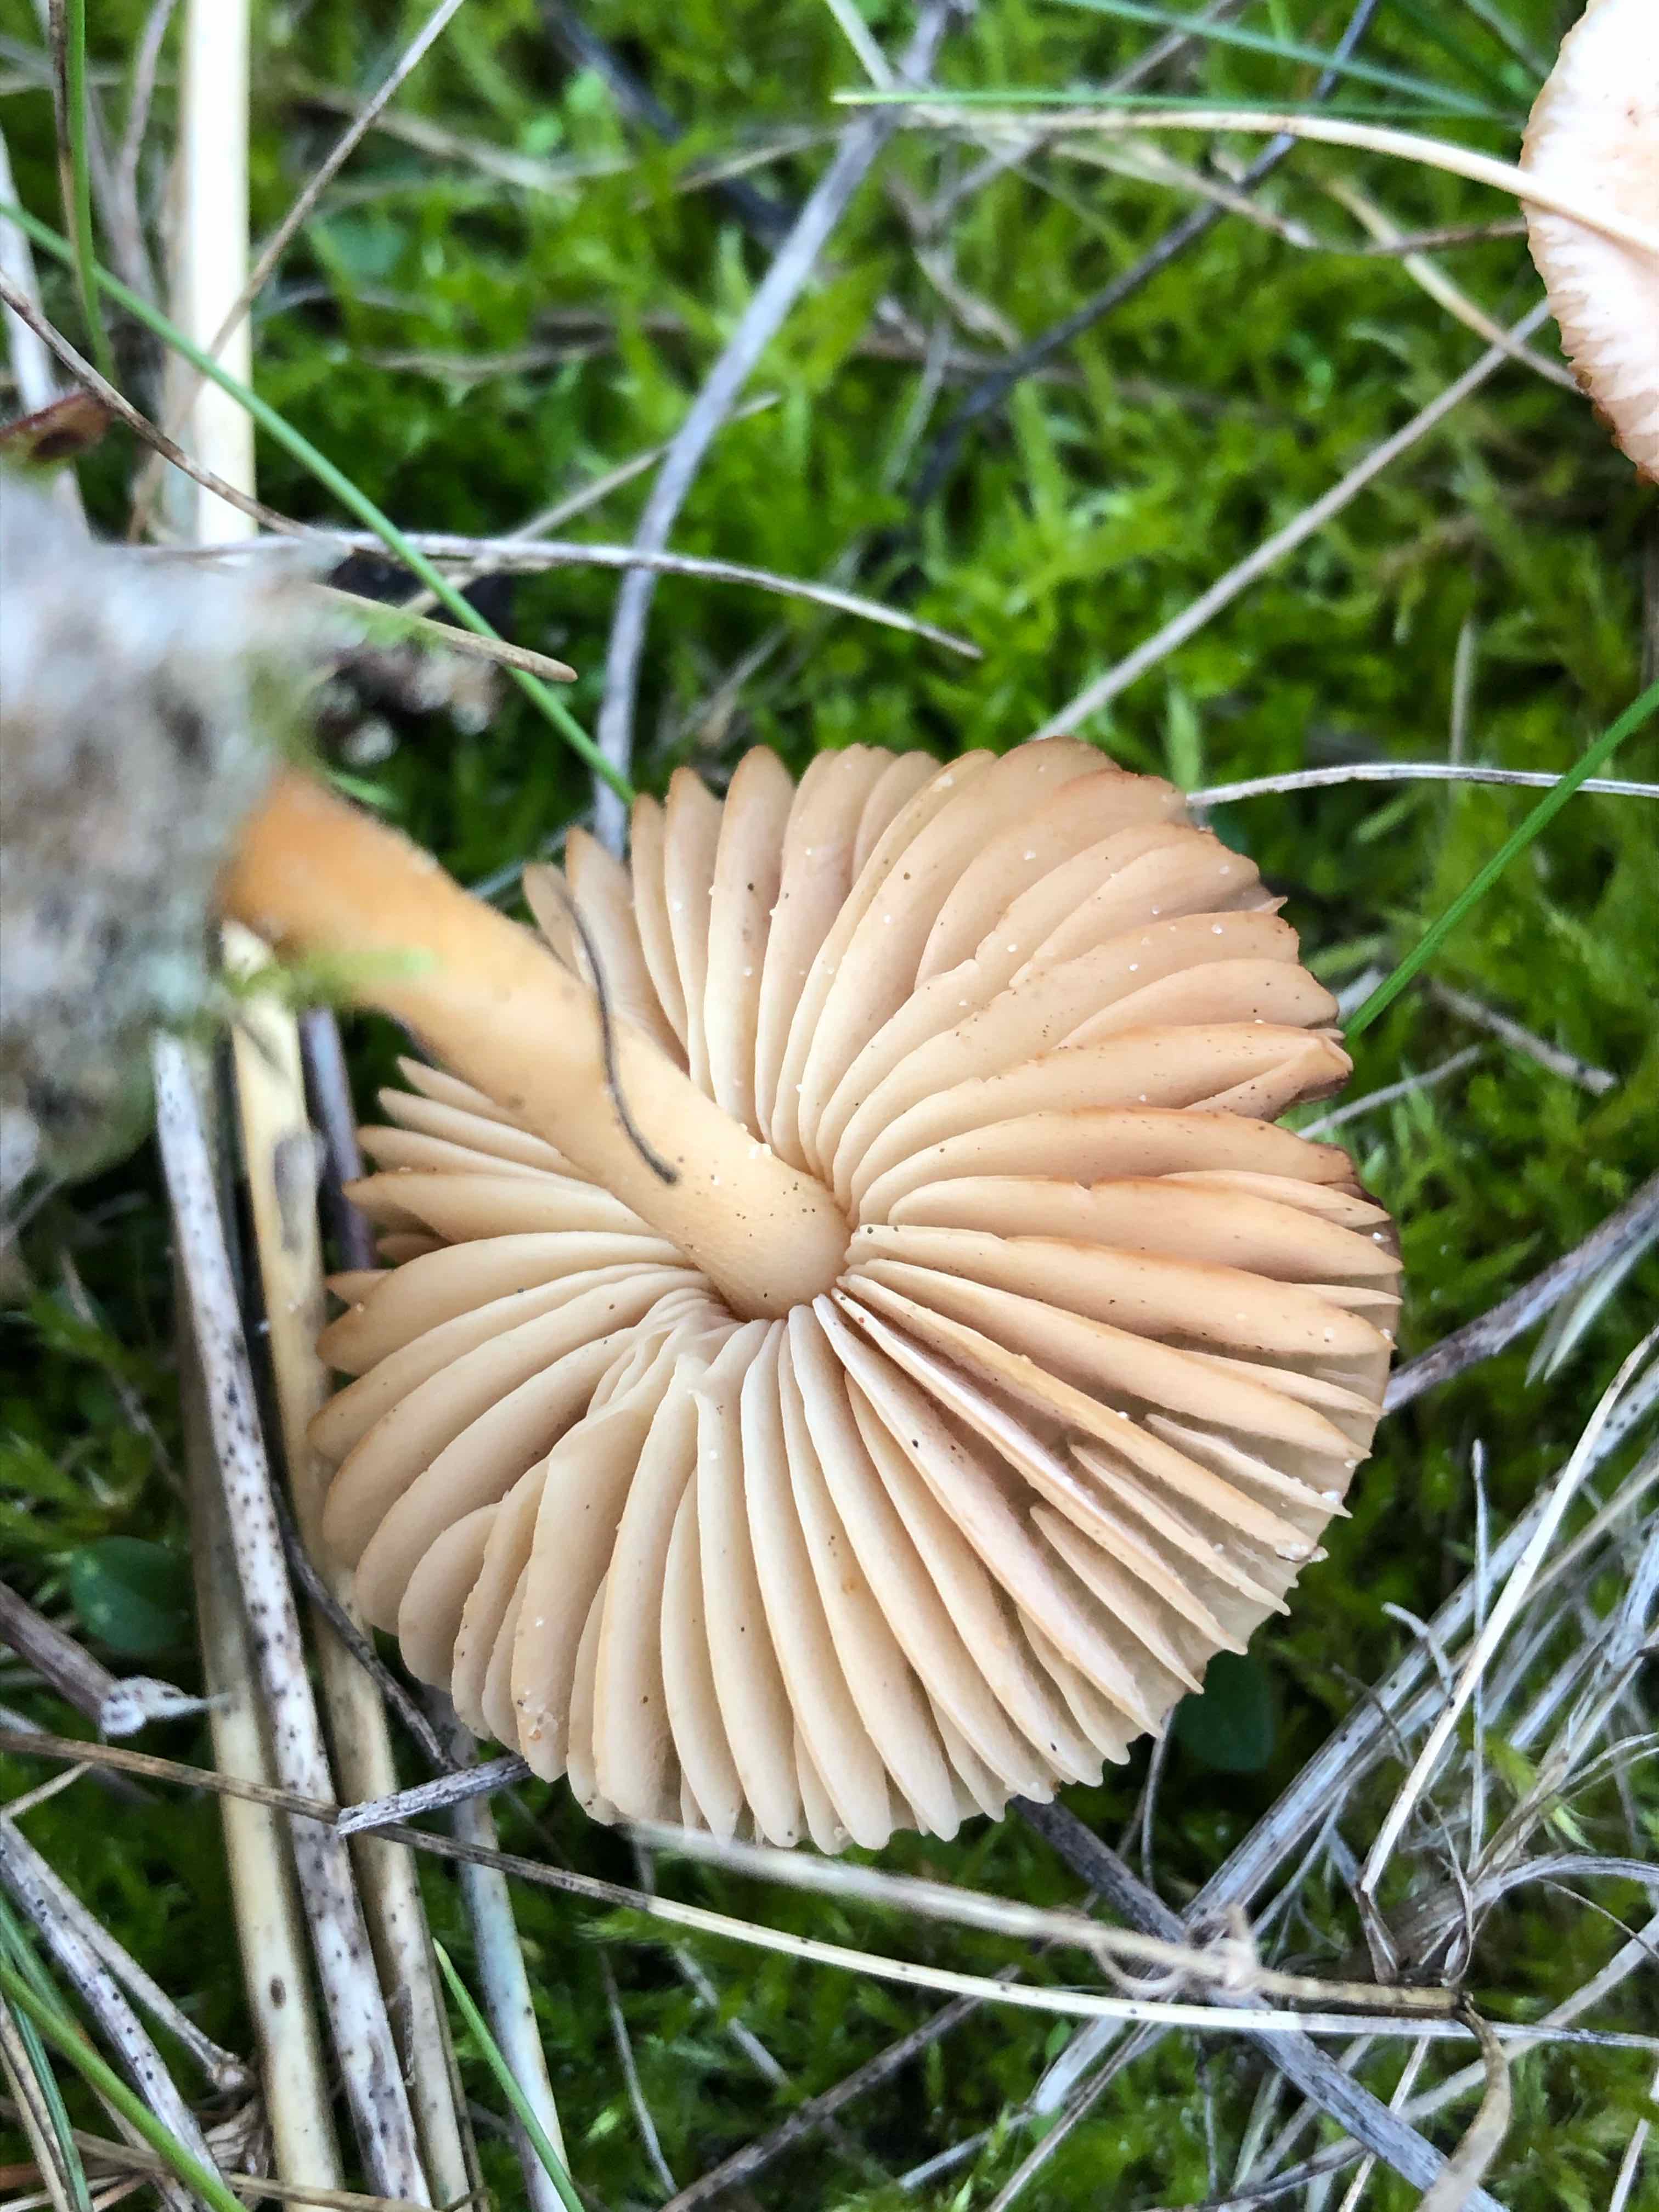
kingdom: Fungi
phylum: Basidiomycota
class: Agaricomycetes
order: Agaricales
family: Marasmiaceae
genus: Marasmius
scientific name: Marasmius oreades
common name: elledans-bruskhat
